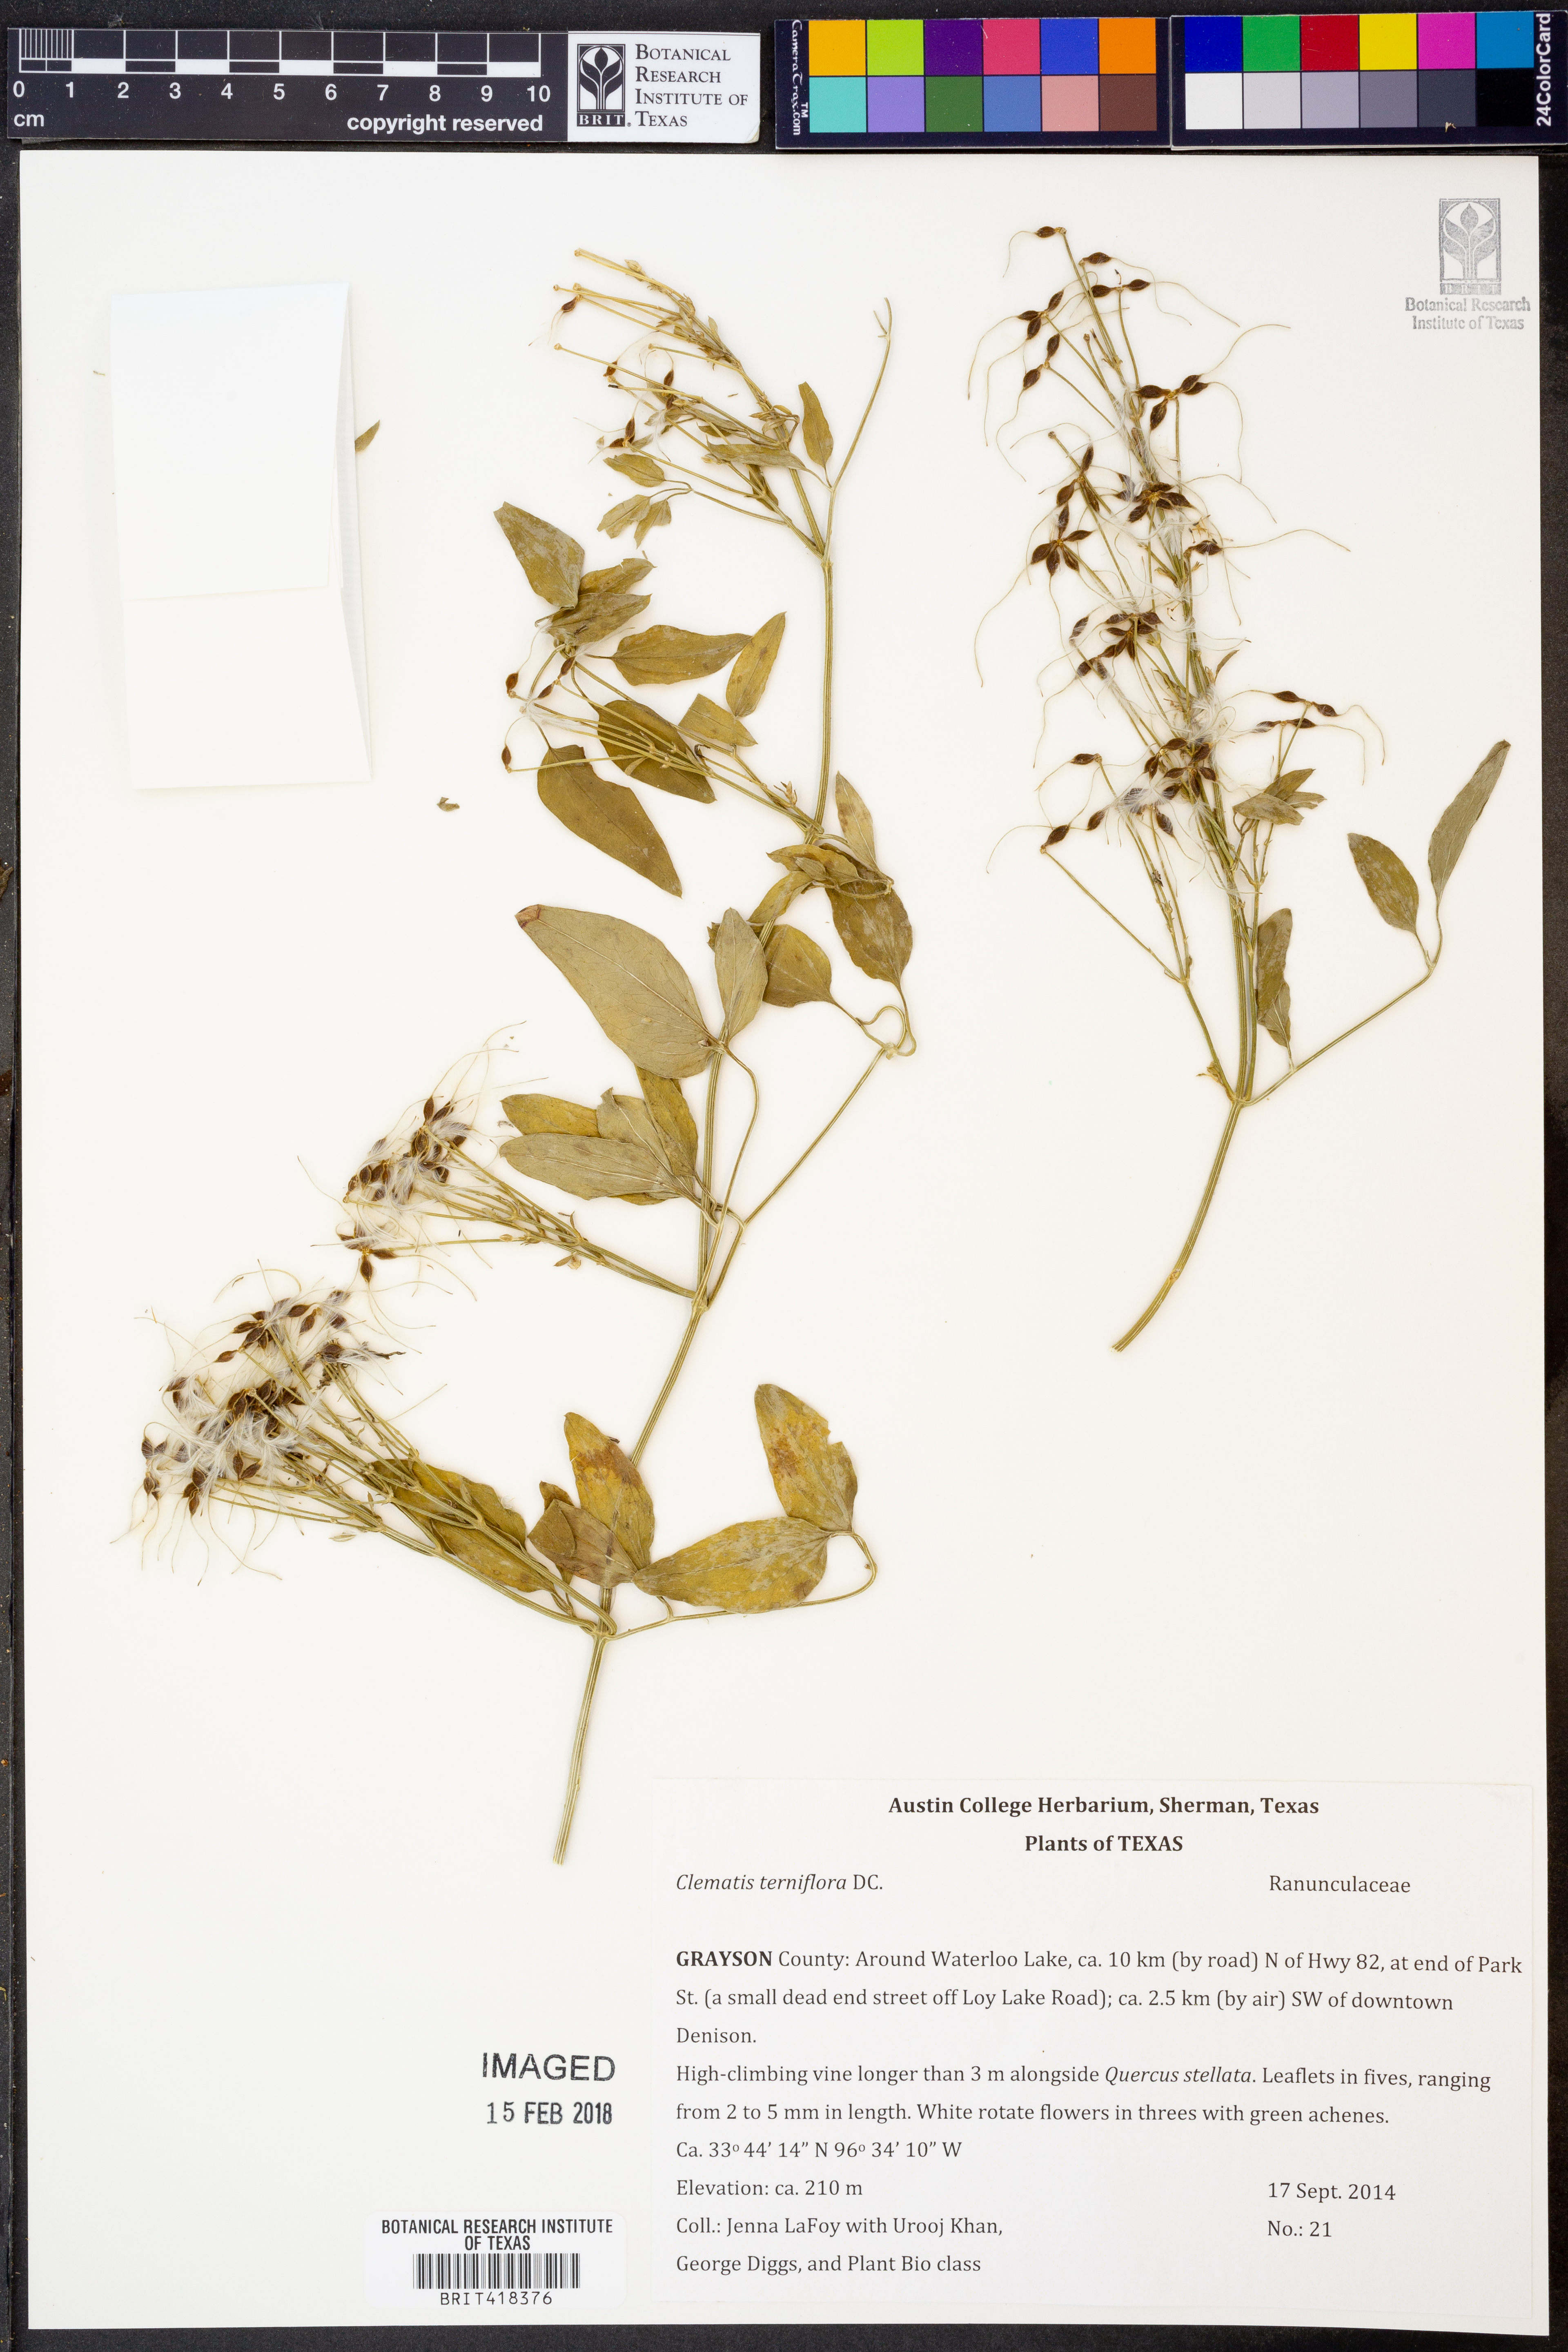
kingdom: Plantae
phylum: Tracheophyta
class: Magnoliopsida
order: Ranunculales
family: Ranunculaceae
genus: Clematis
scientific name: Clematis terniflora
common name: Sweet autumn clematis
